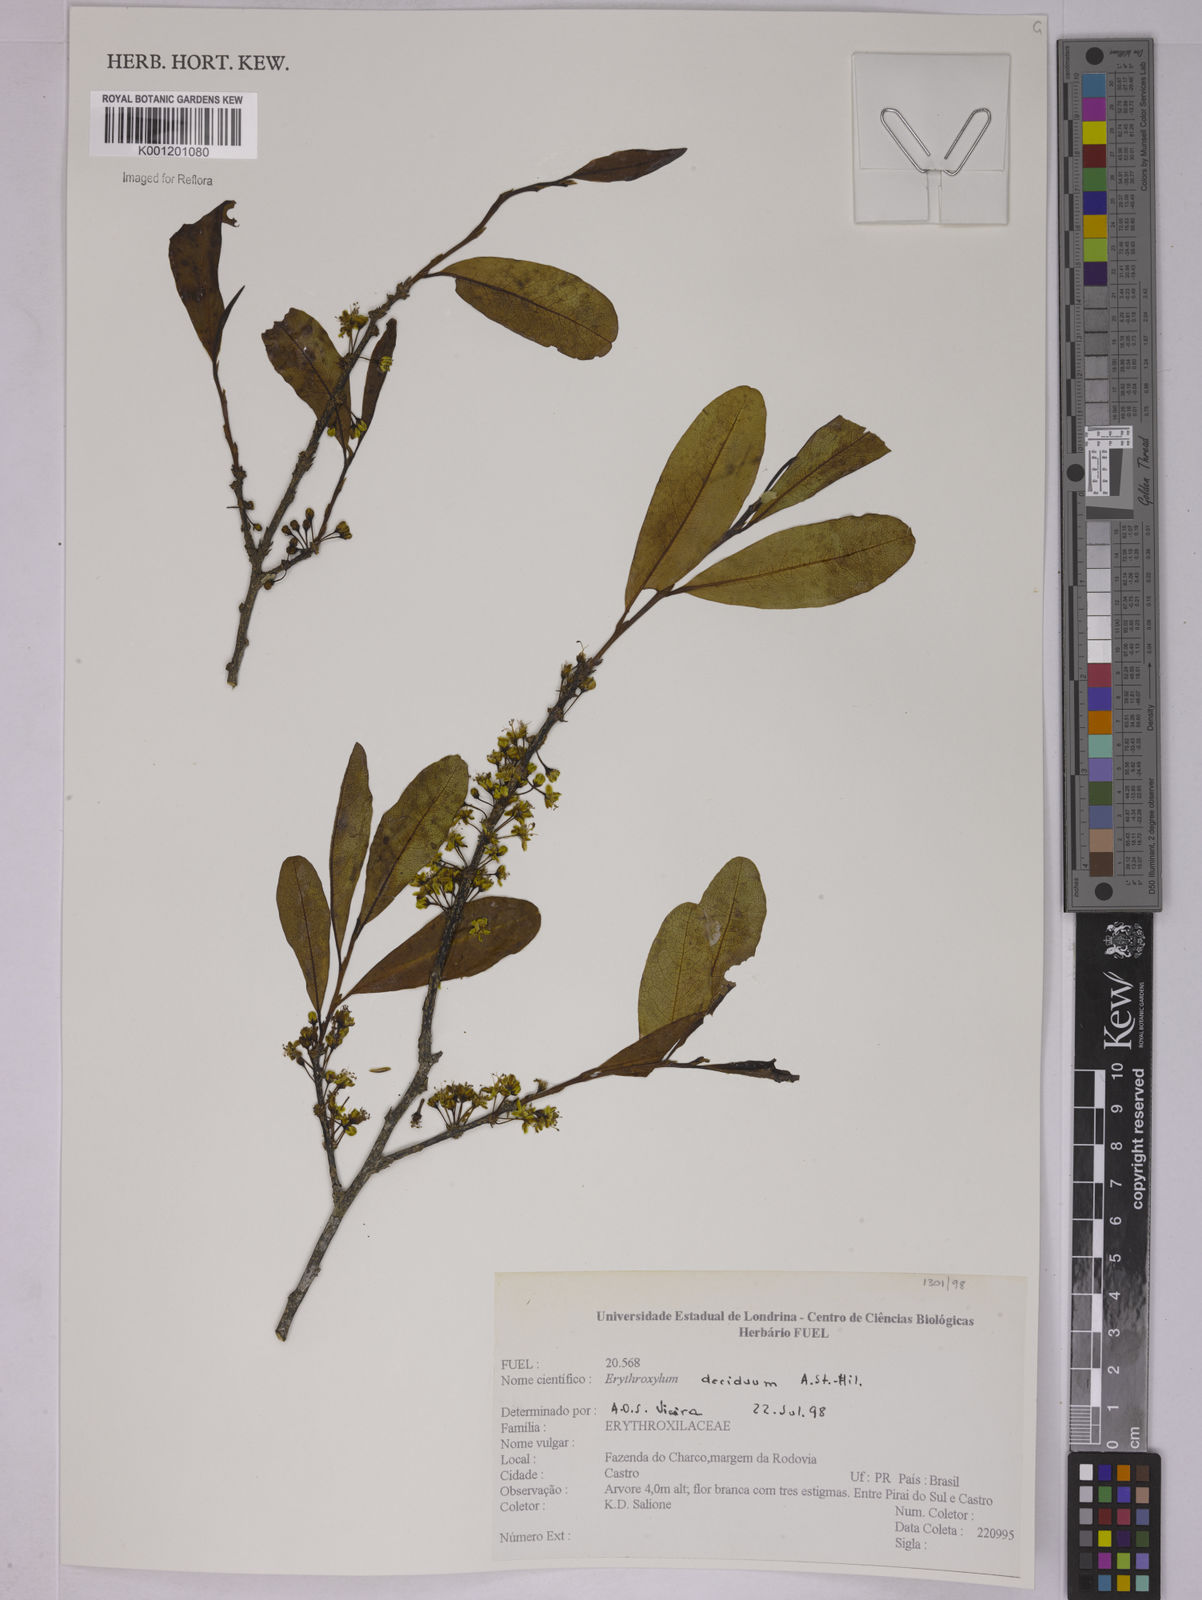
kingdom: Plantae
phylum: Tracheophyta
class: Magnoliopsida
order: Malpighiales
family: Erythroxylaceae
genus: Erythroxylum
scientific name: Erythroxylum deciduum
